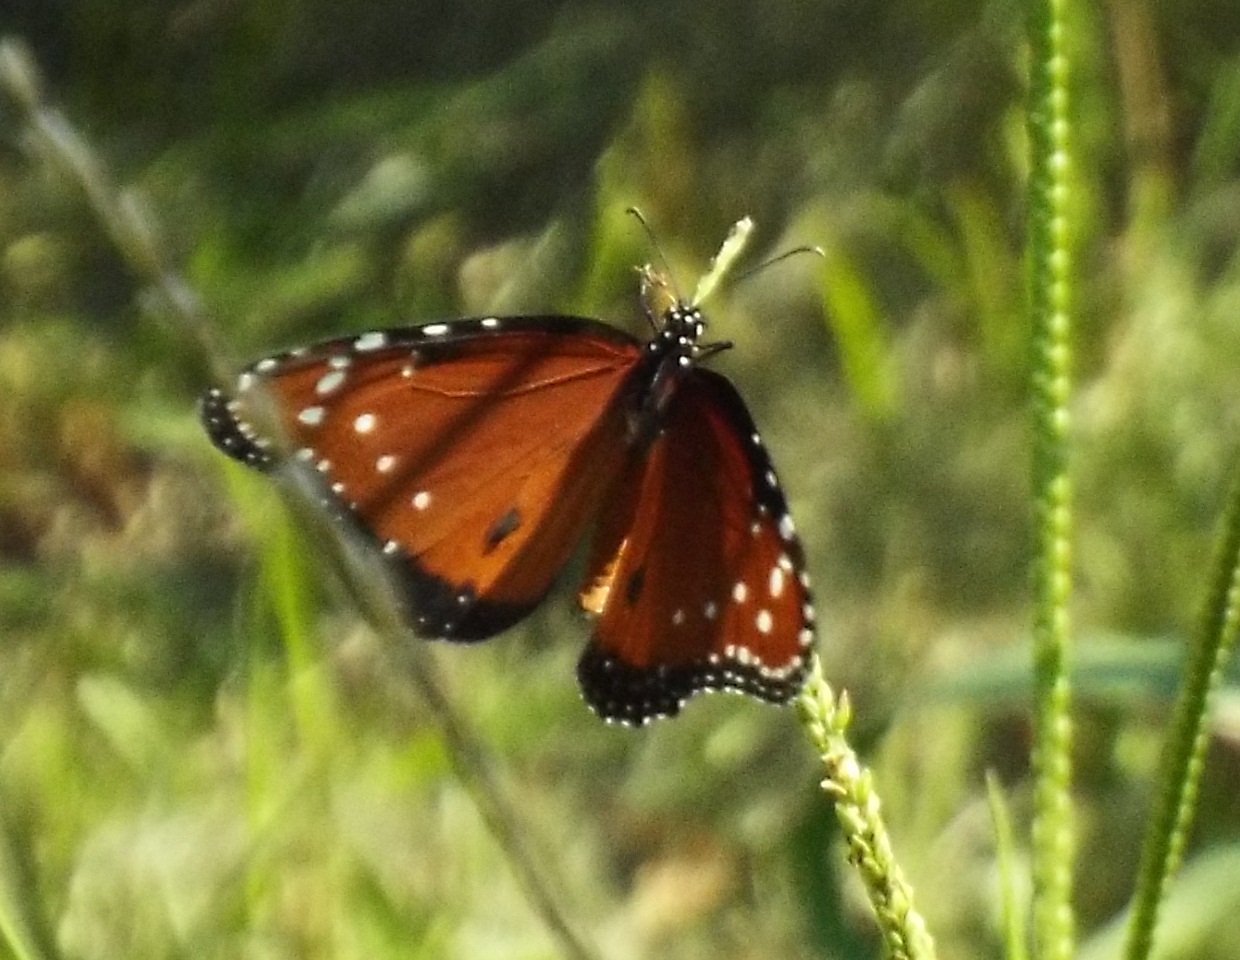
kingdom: Animalia
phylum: Arthropoda
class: Insecta
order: Lepidoptera
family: Nymphalidae
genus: Danaus
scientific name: Danaus gilippus
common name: Queen
